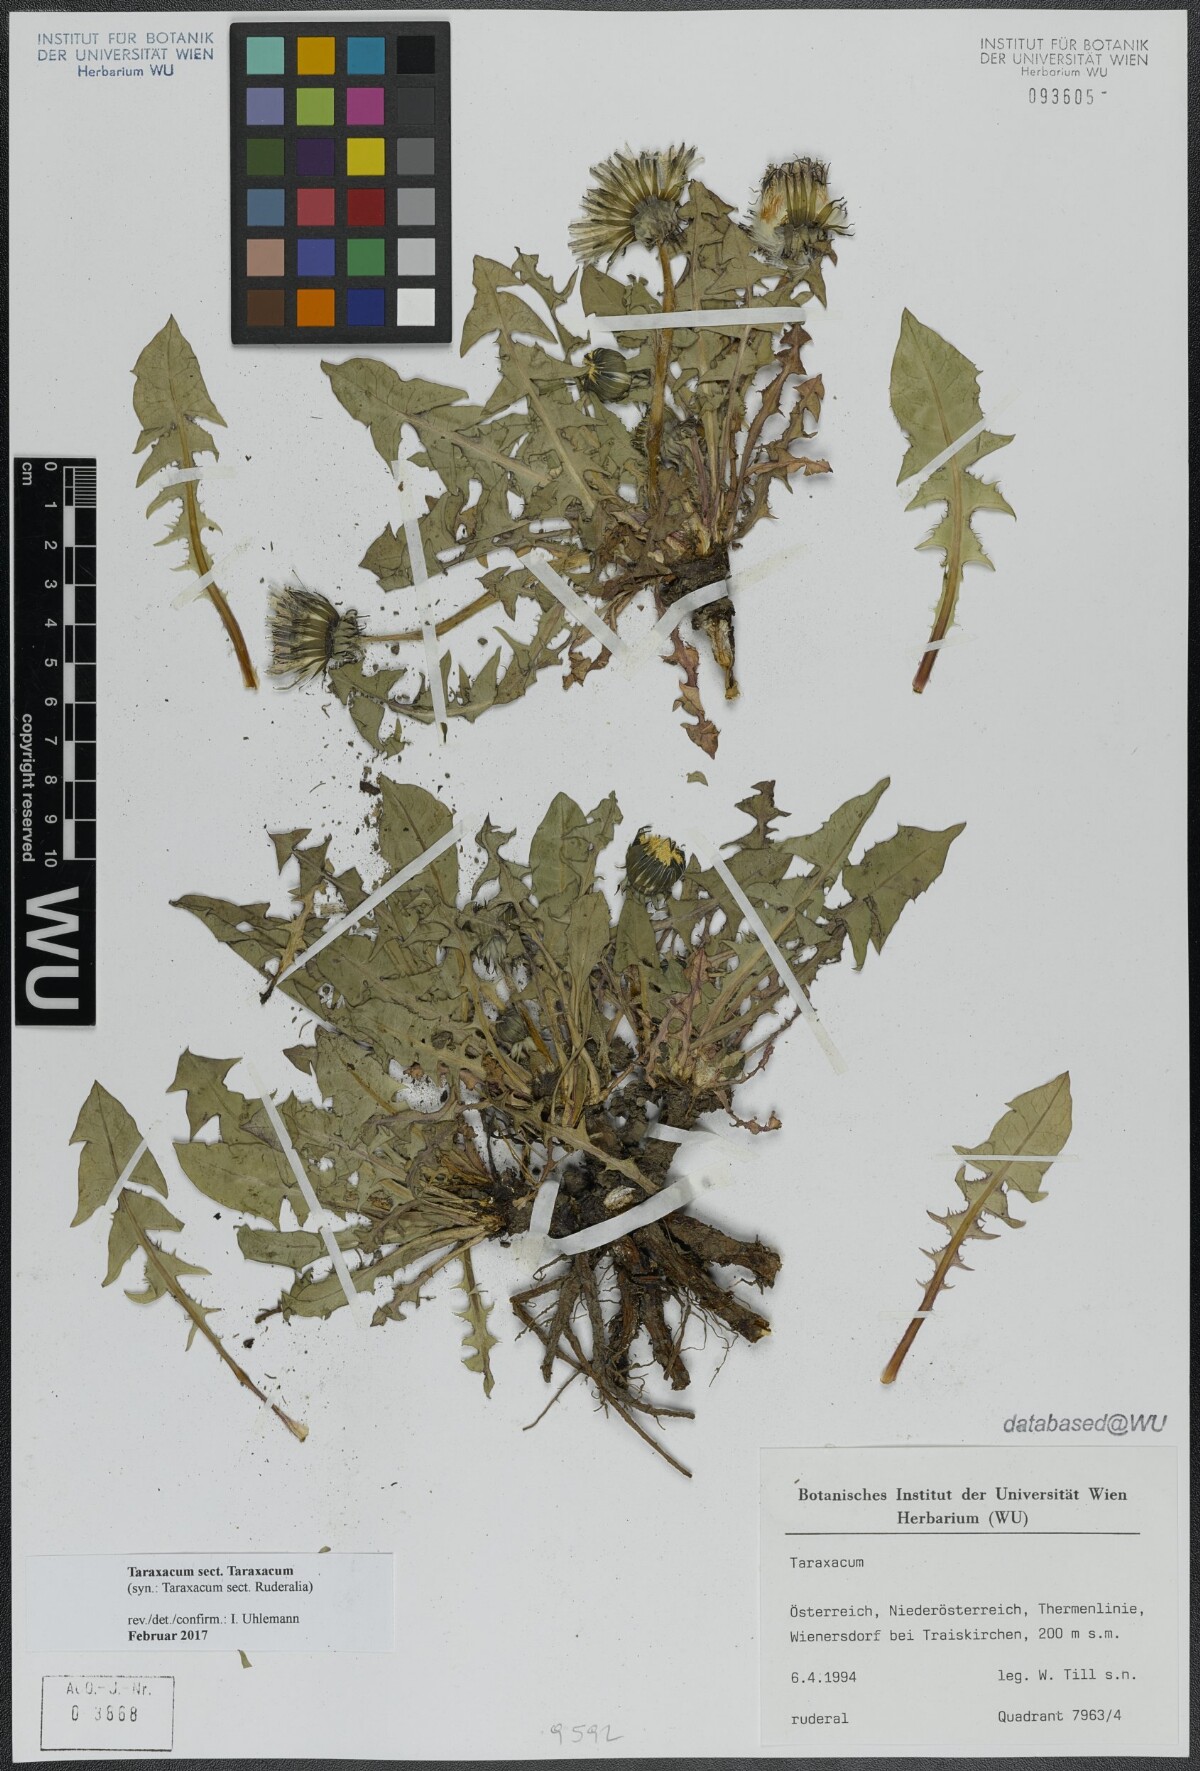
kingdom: Plantae
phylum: Tracheophyta
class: Magnoliopsida
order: Asterales
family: Asteraceae
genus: Taraxacum
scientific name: Taraxacum
